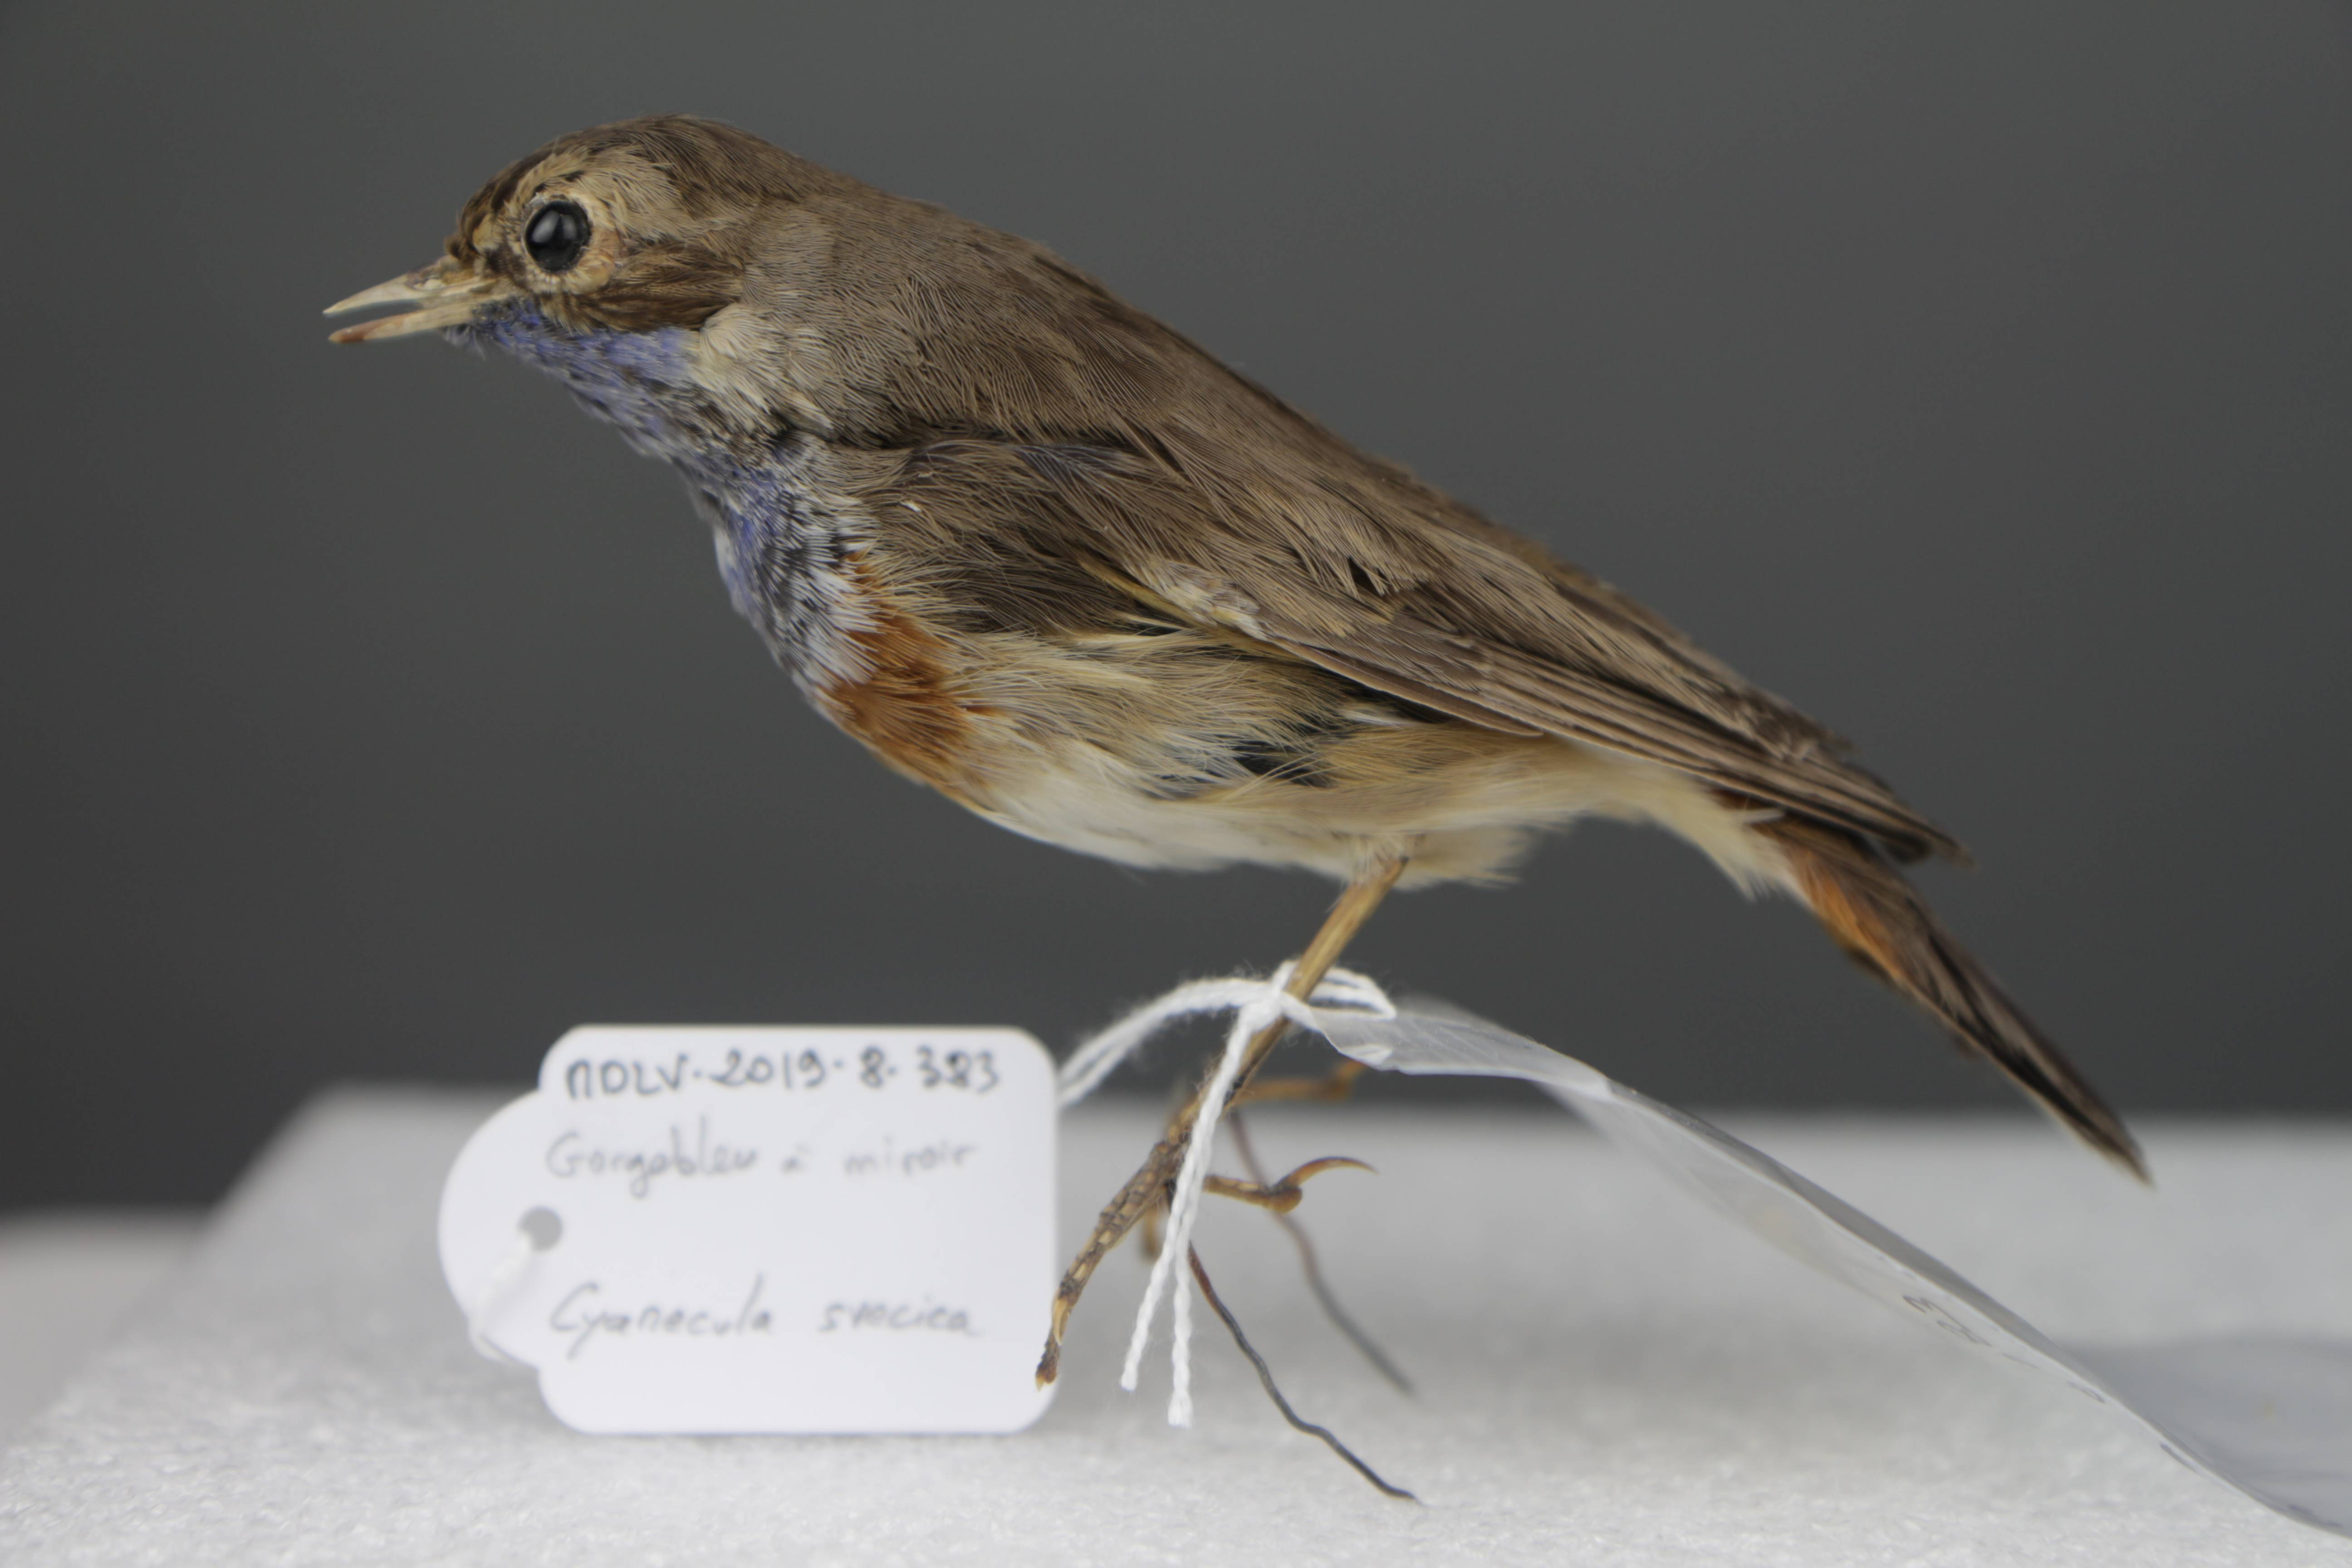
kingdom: Animalia
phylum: Chordata
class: Aves
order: Passeriformes
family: Muscicapidae
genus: Luscinia
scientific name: Luscinia svecica
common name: Bluethroat
